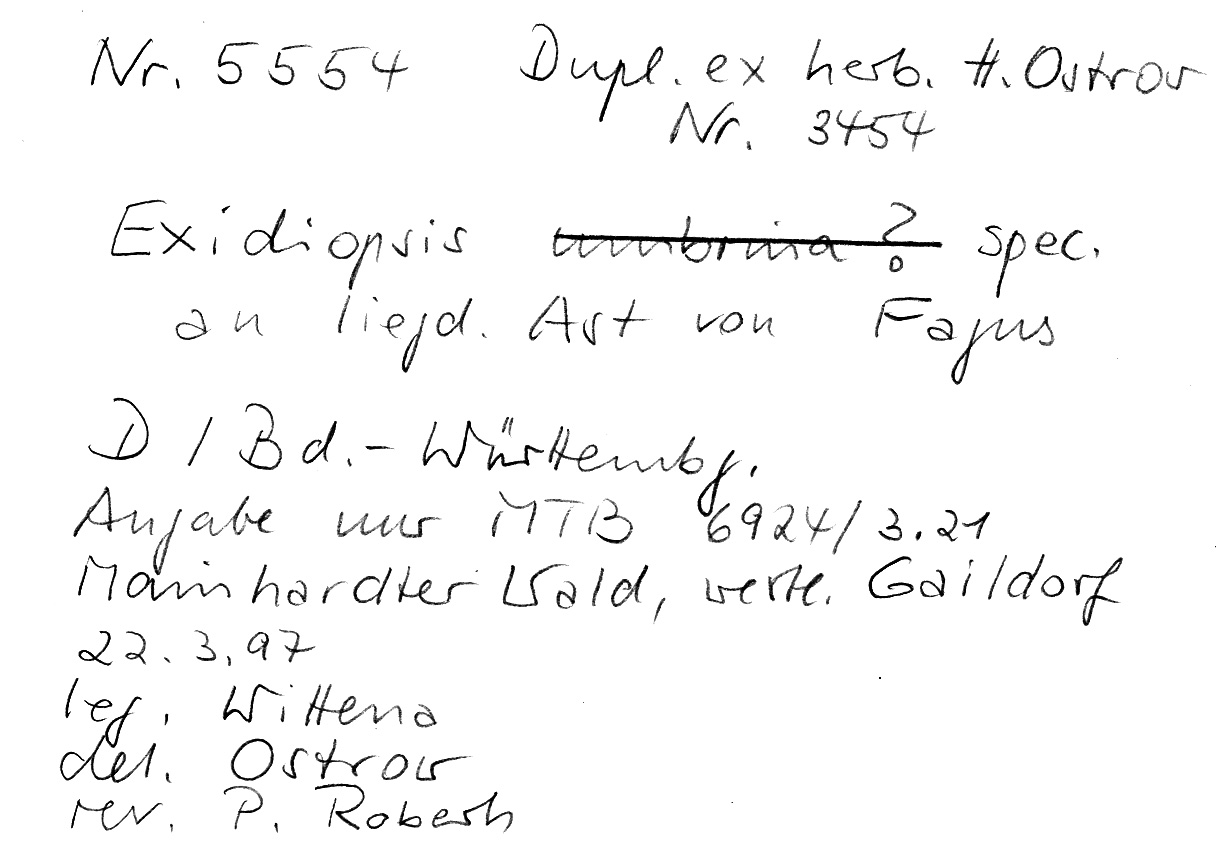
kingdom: Fungi
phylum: Basidiomycota
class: Agaricomycetes
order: Auriculariales
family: Auriculariaceae
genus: Exidiopsis
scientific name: Exidiopsis
